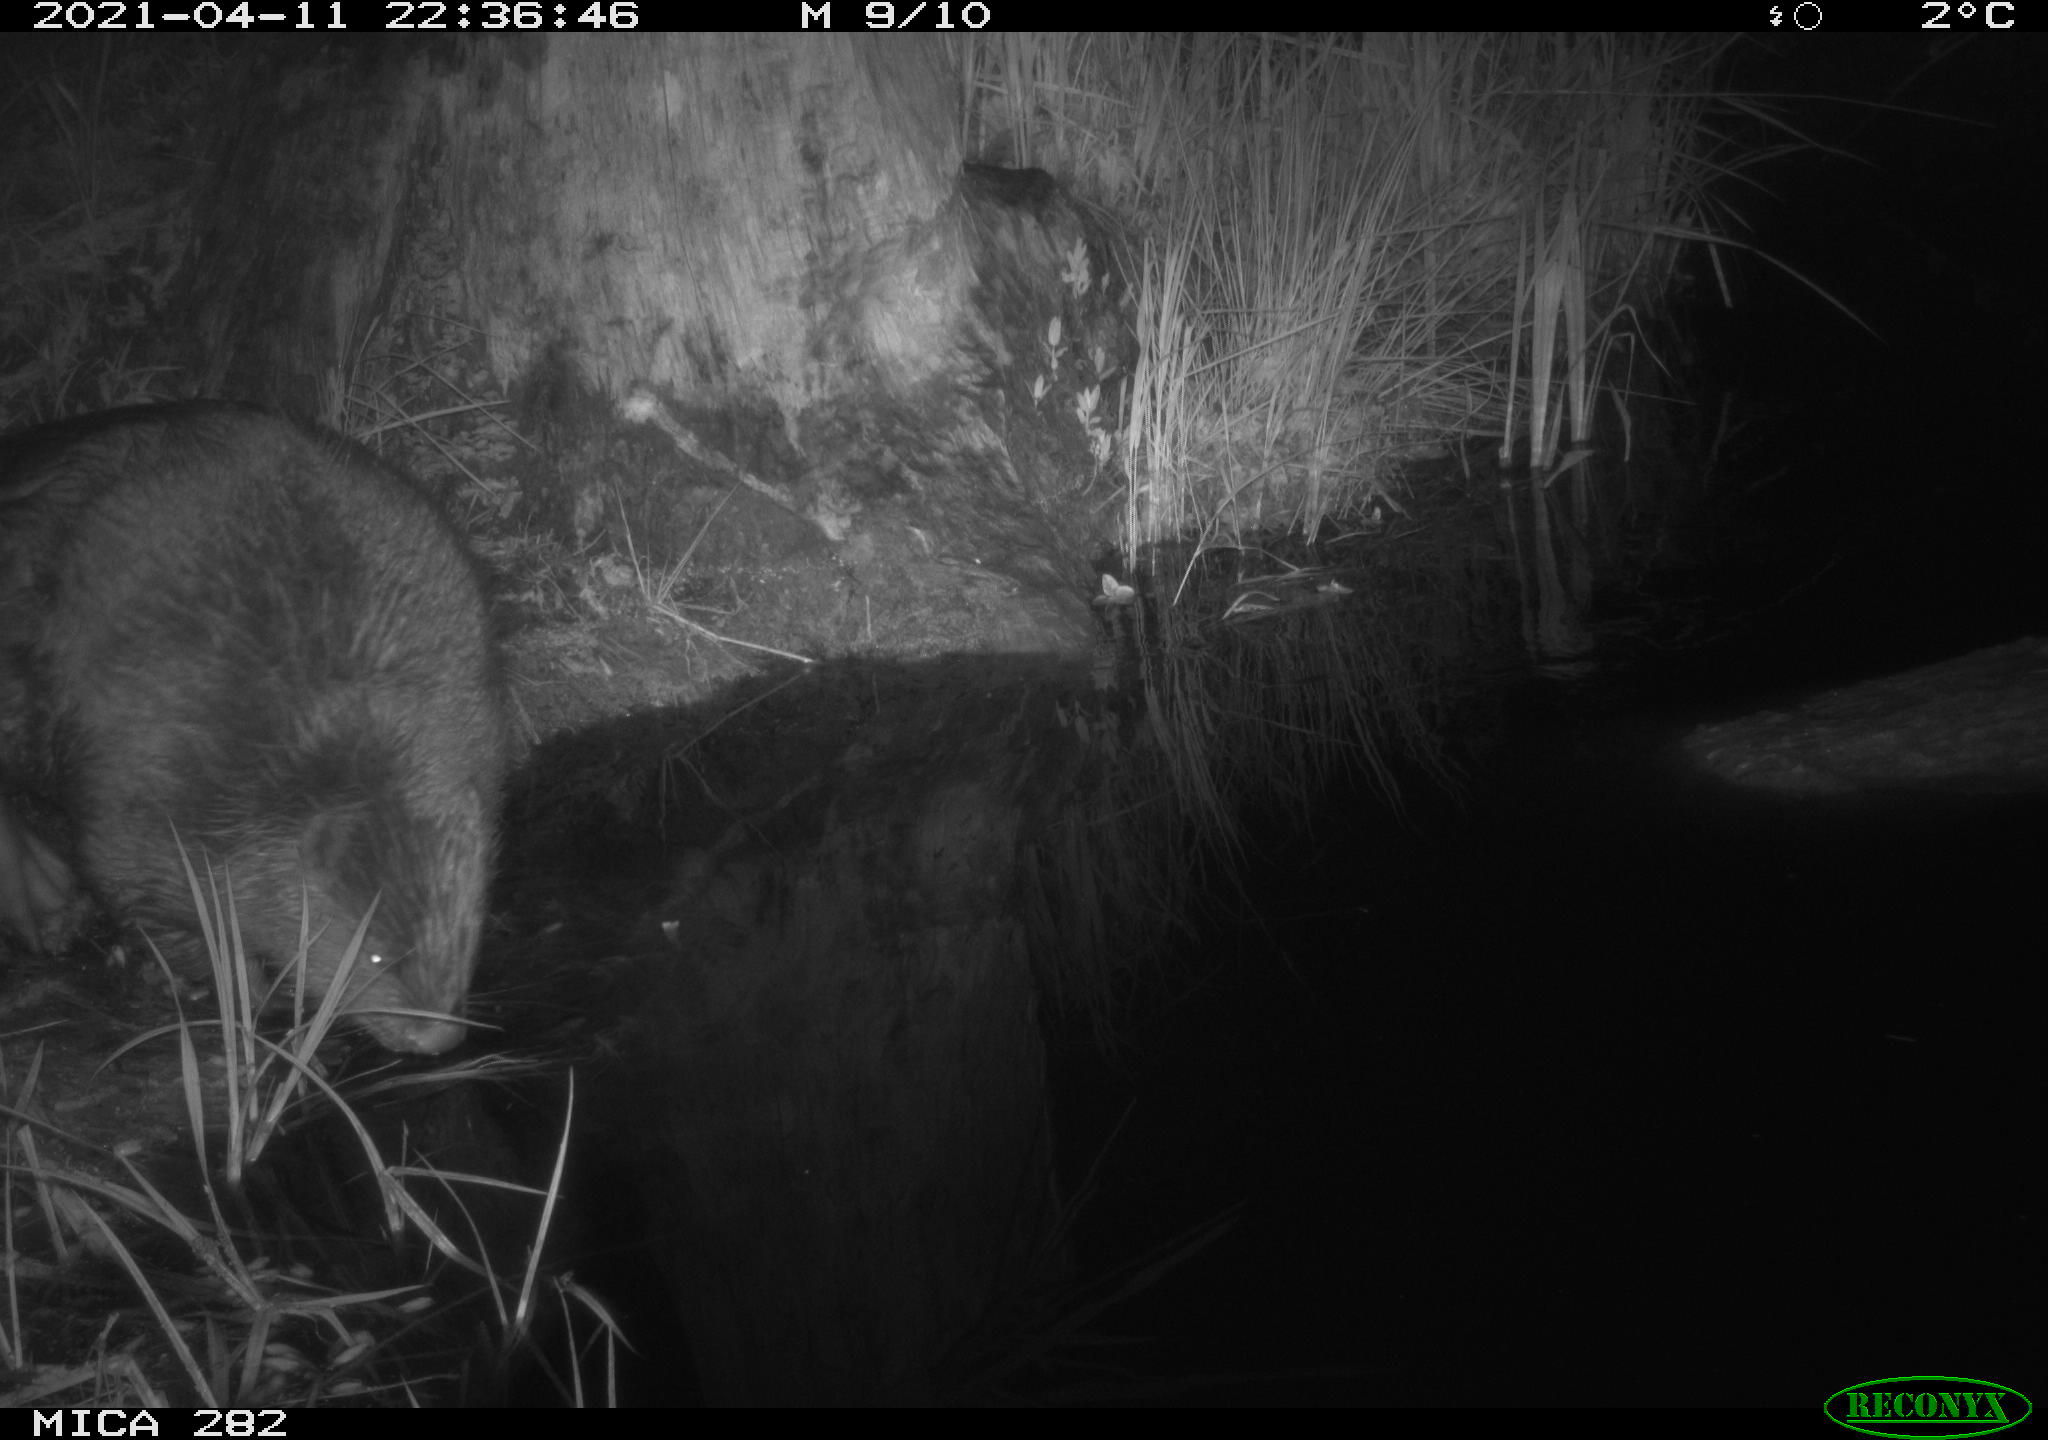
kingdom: Animalia
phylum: Chordata
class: Mammalia
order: Rodentia
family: Castoridae
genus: Castor
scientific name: Castor fiber
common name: Eurasian beaver
